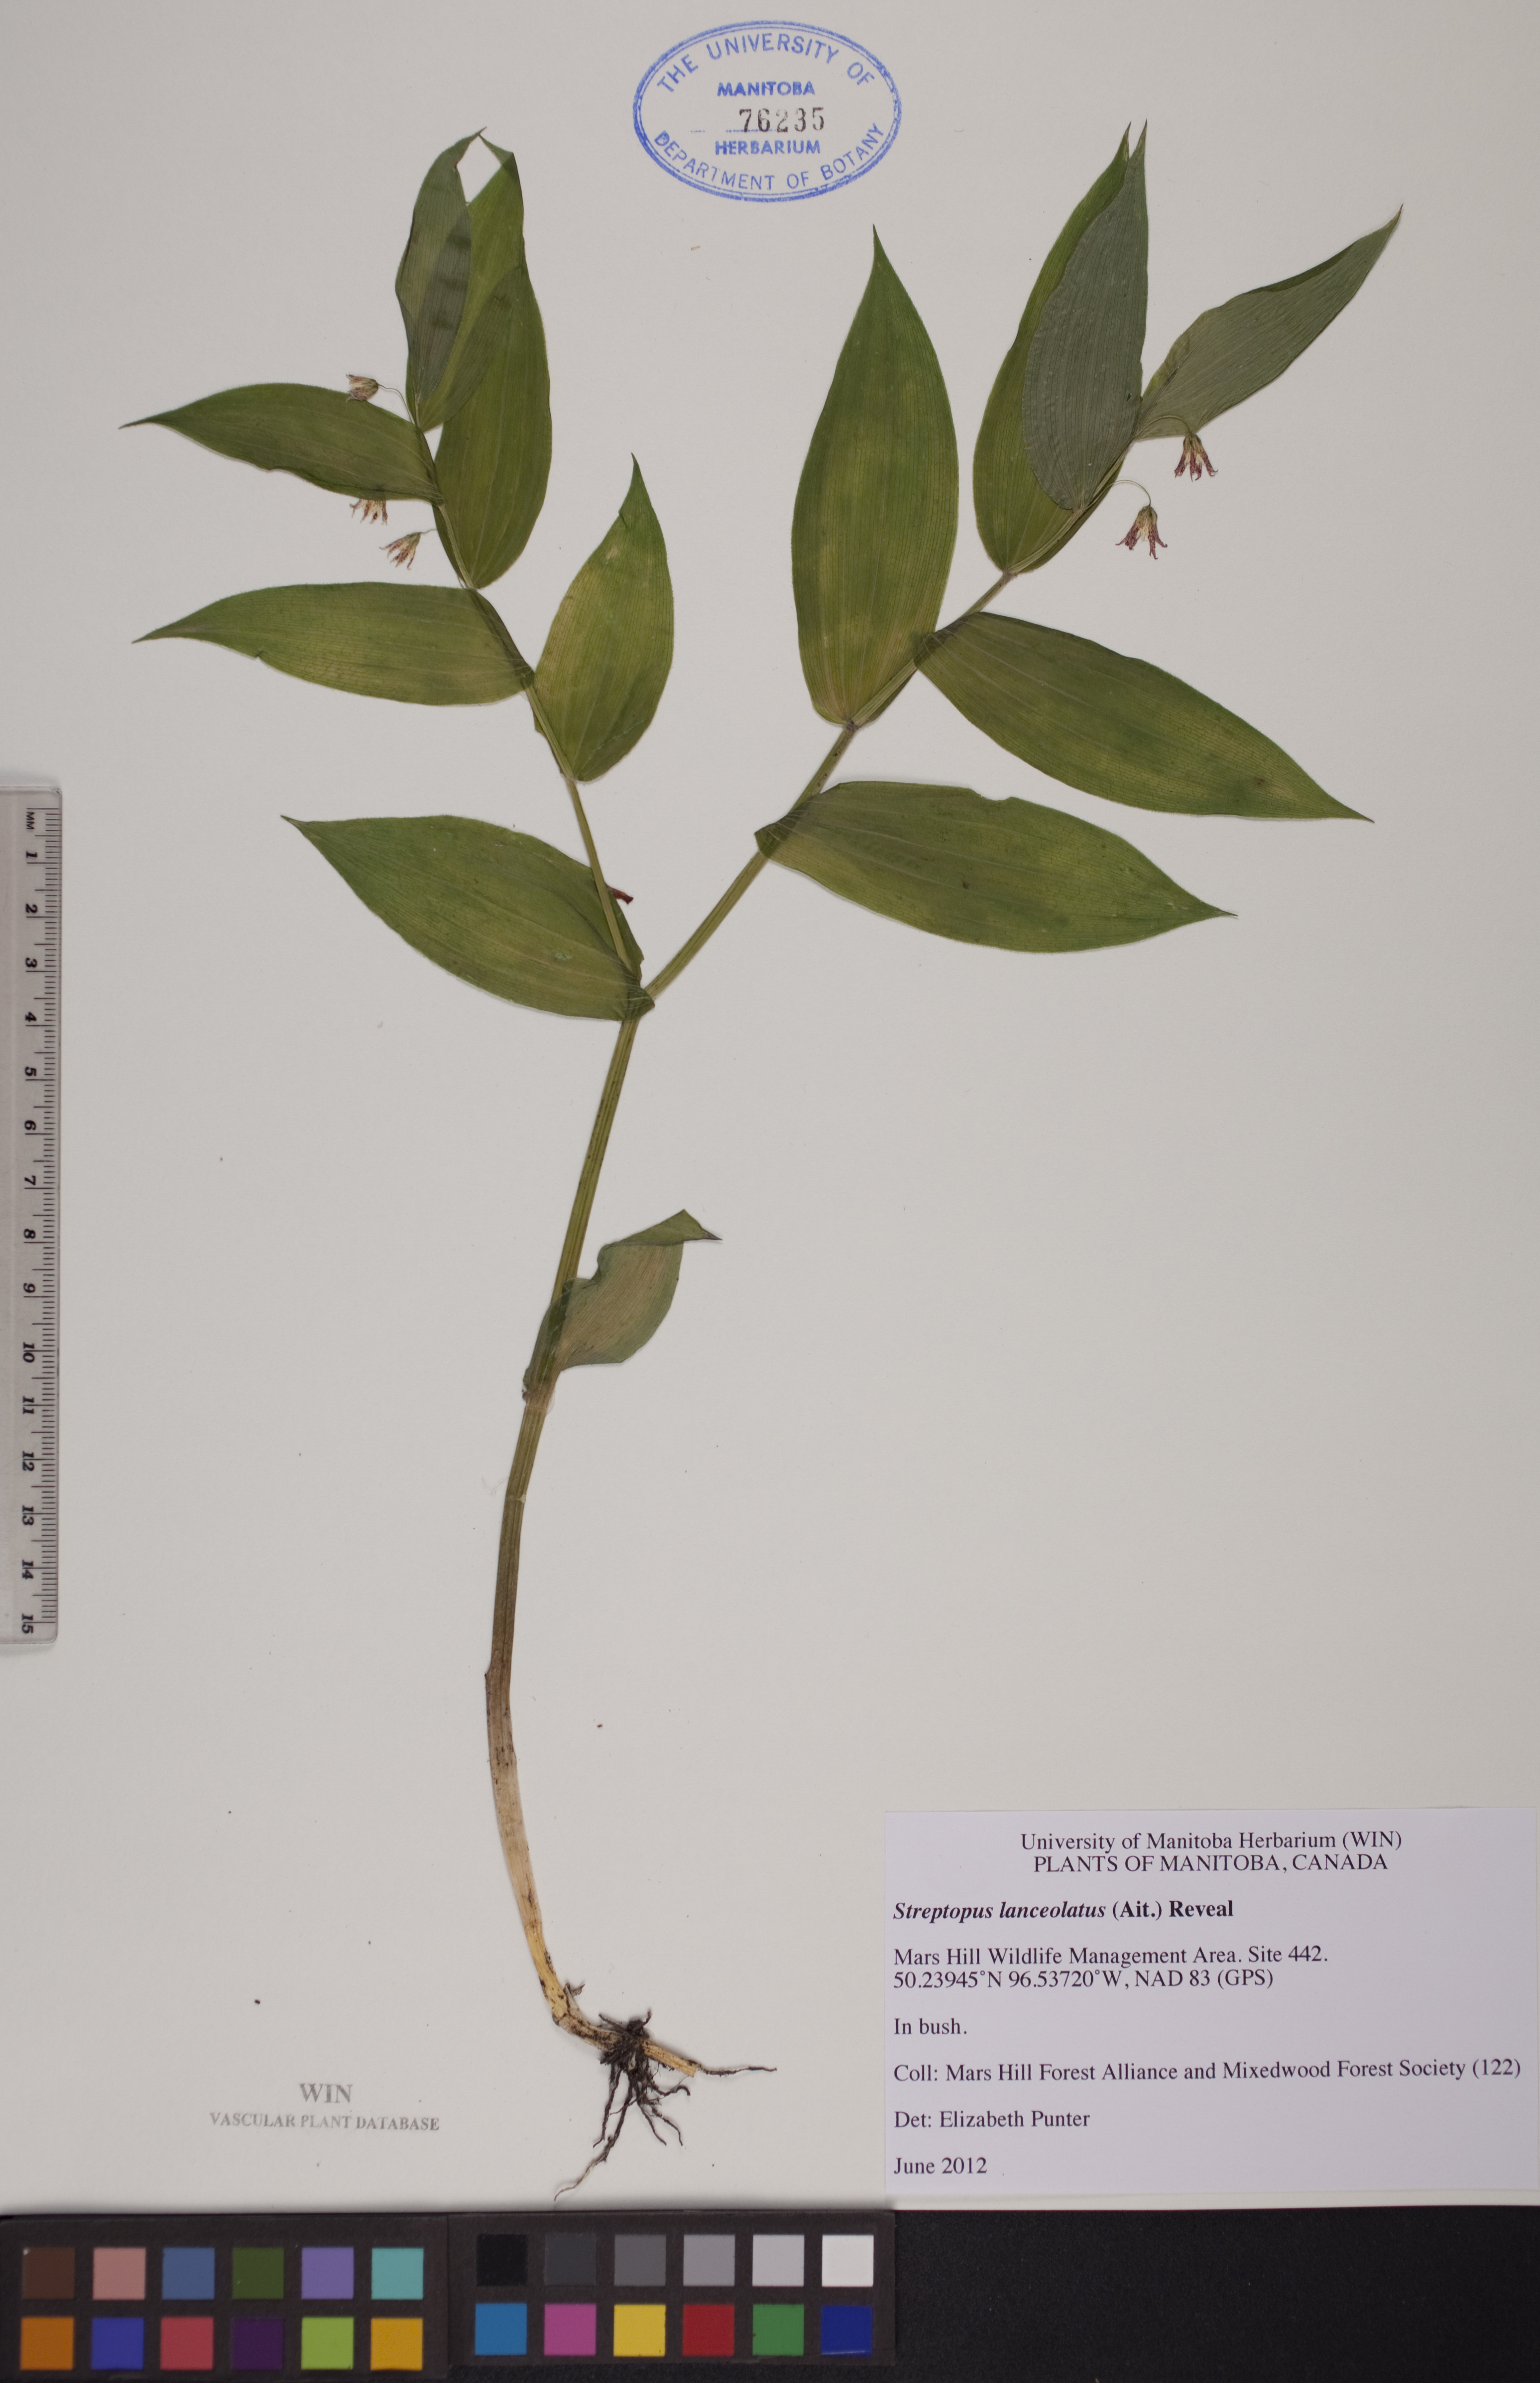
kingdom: Plantae
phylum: Tracheophyta
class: Liliopsida
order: Liliales
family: Liliaceae
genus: Streptopus
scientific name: Streptopus lanceolatus
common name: Rose mandarin
